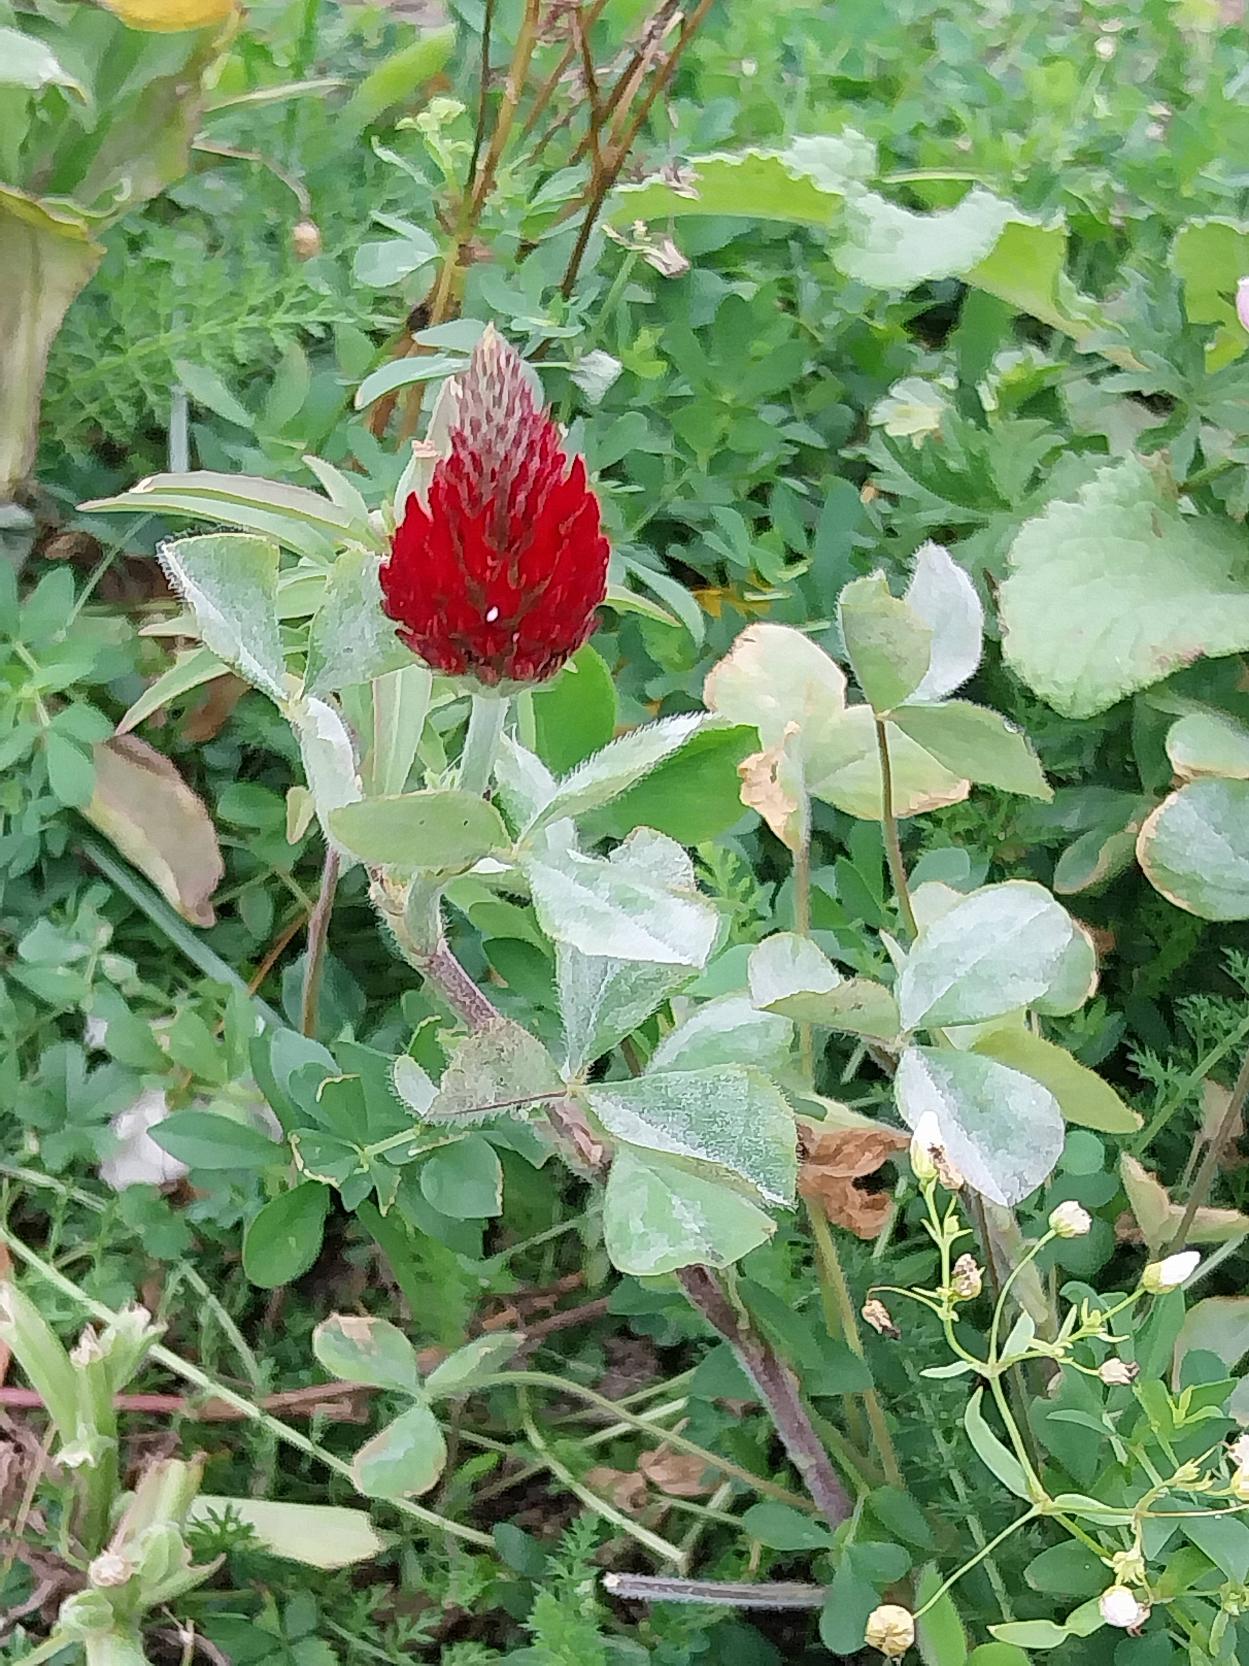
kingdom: Plantae
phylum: Tracheophyta
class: Magnoliopsida
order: Fabales
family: Fabaceae
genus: Trifolium
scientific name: Trifolium incarnatum
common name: Blod-kløver
